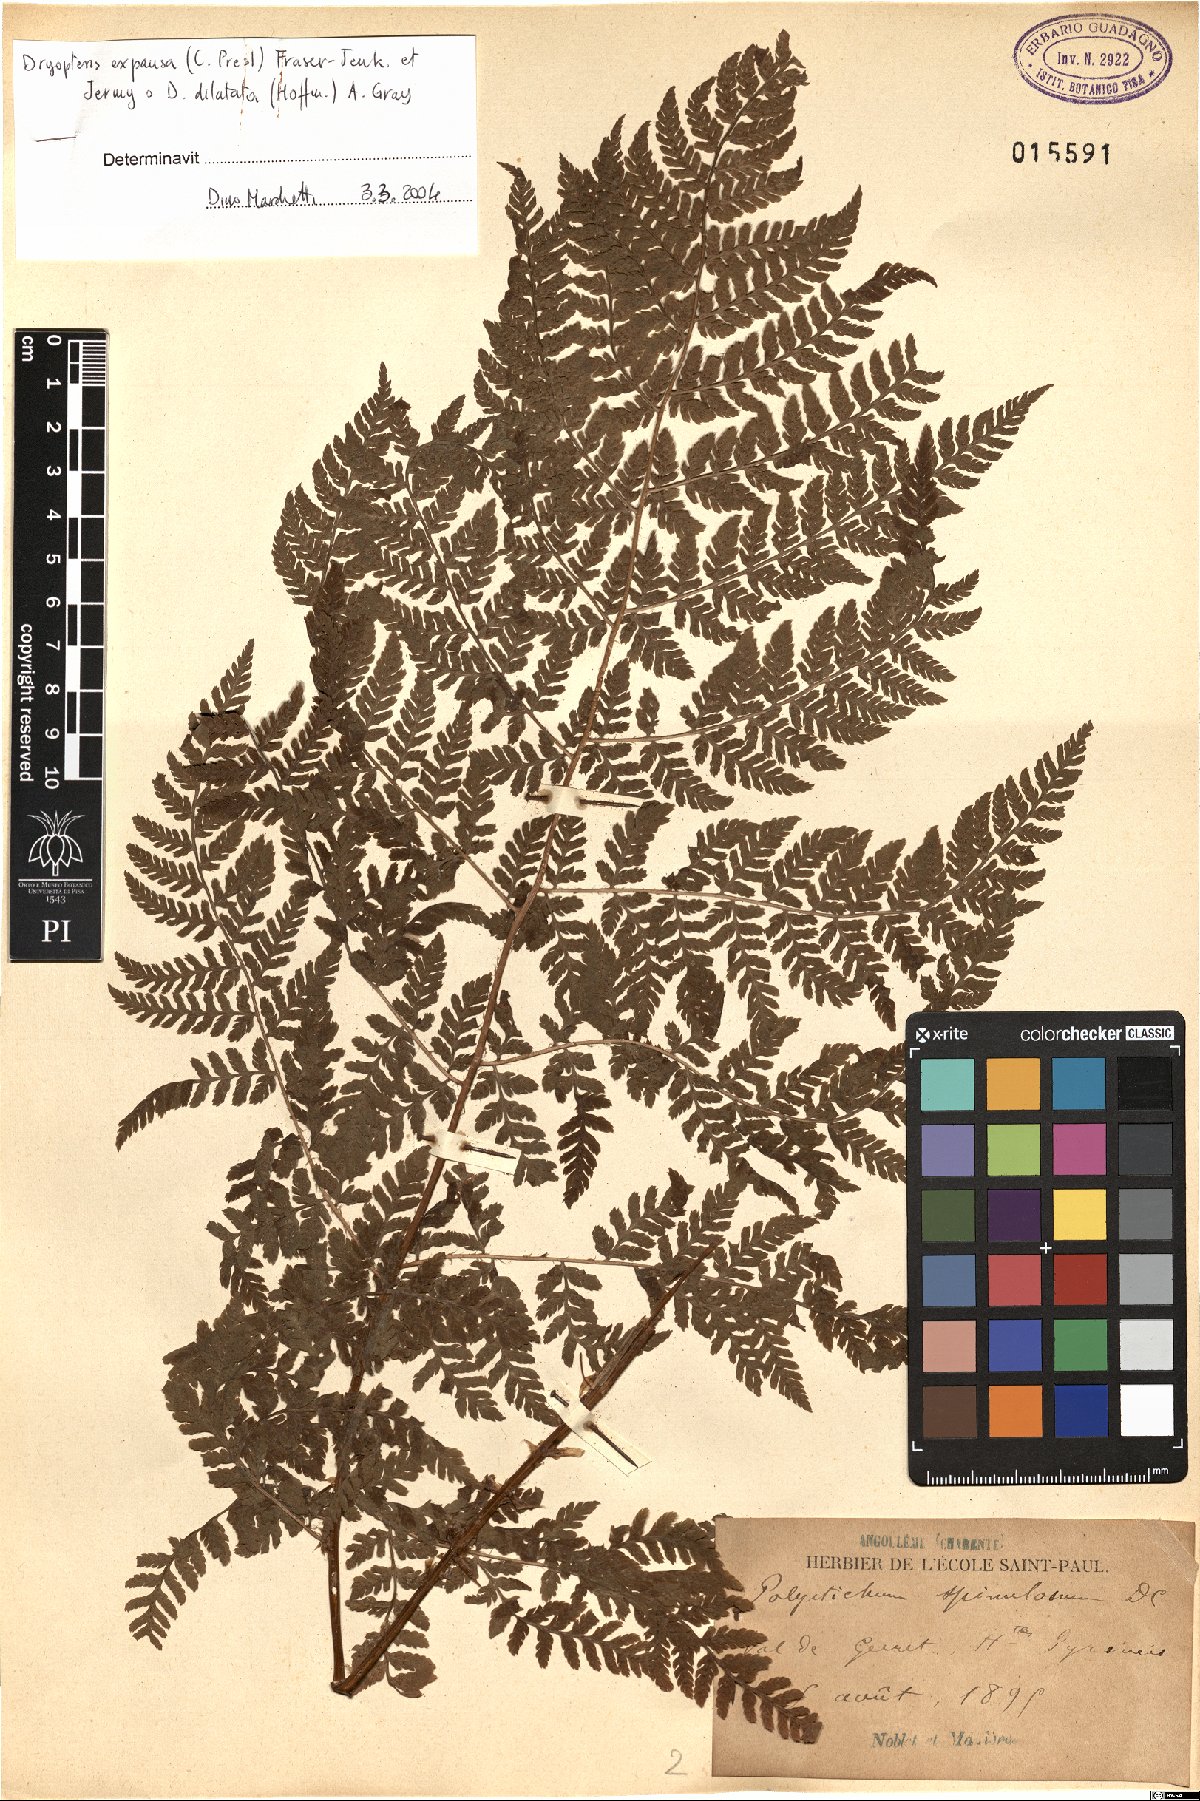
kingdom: Plantae
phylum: Tracheophyta
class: Polypodiopsida
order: Polypodiales
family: Dryopteridaceae
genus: Dryopteris
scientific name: Dryopteris expansa
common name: Northern buckler fern
